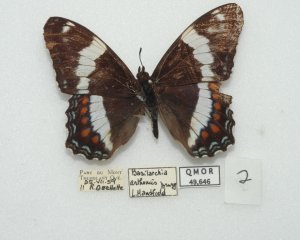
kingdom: Animalia
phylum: Arthropoda
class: Insecta
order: Lepidoptera
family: Nymphalidae
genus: Limenitis
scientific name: Limenitis arthemis
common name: Red-spotted Admiral
